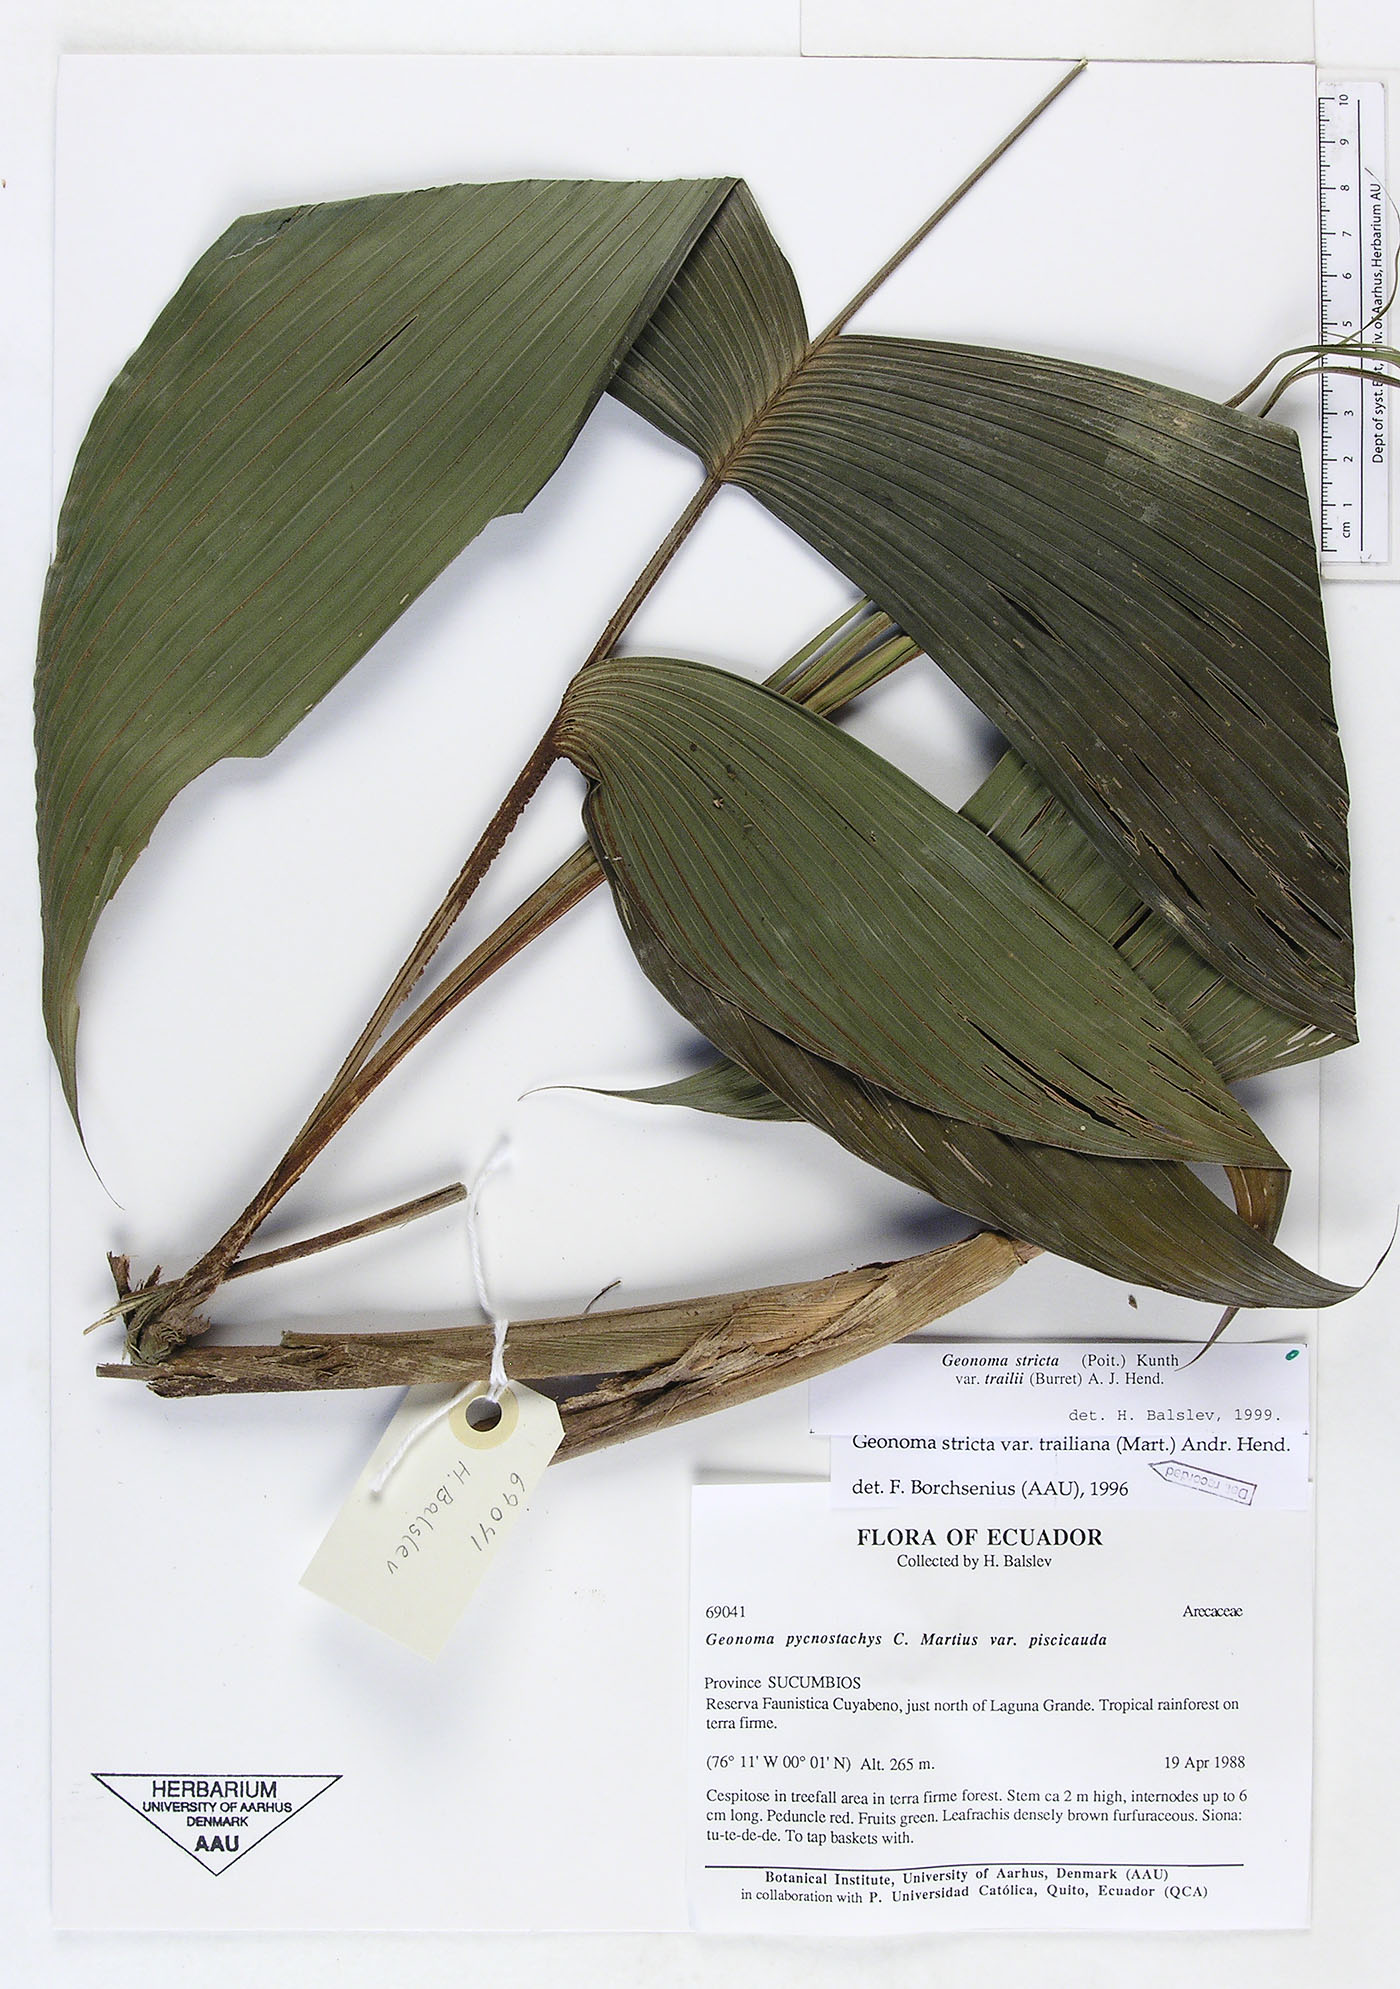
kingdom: Plantae
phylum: Tracheophyta
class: Liliopsida
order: Arecales
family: Arecaceae
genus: Geonoma
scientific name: Geonoma stricta
